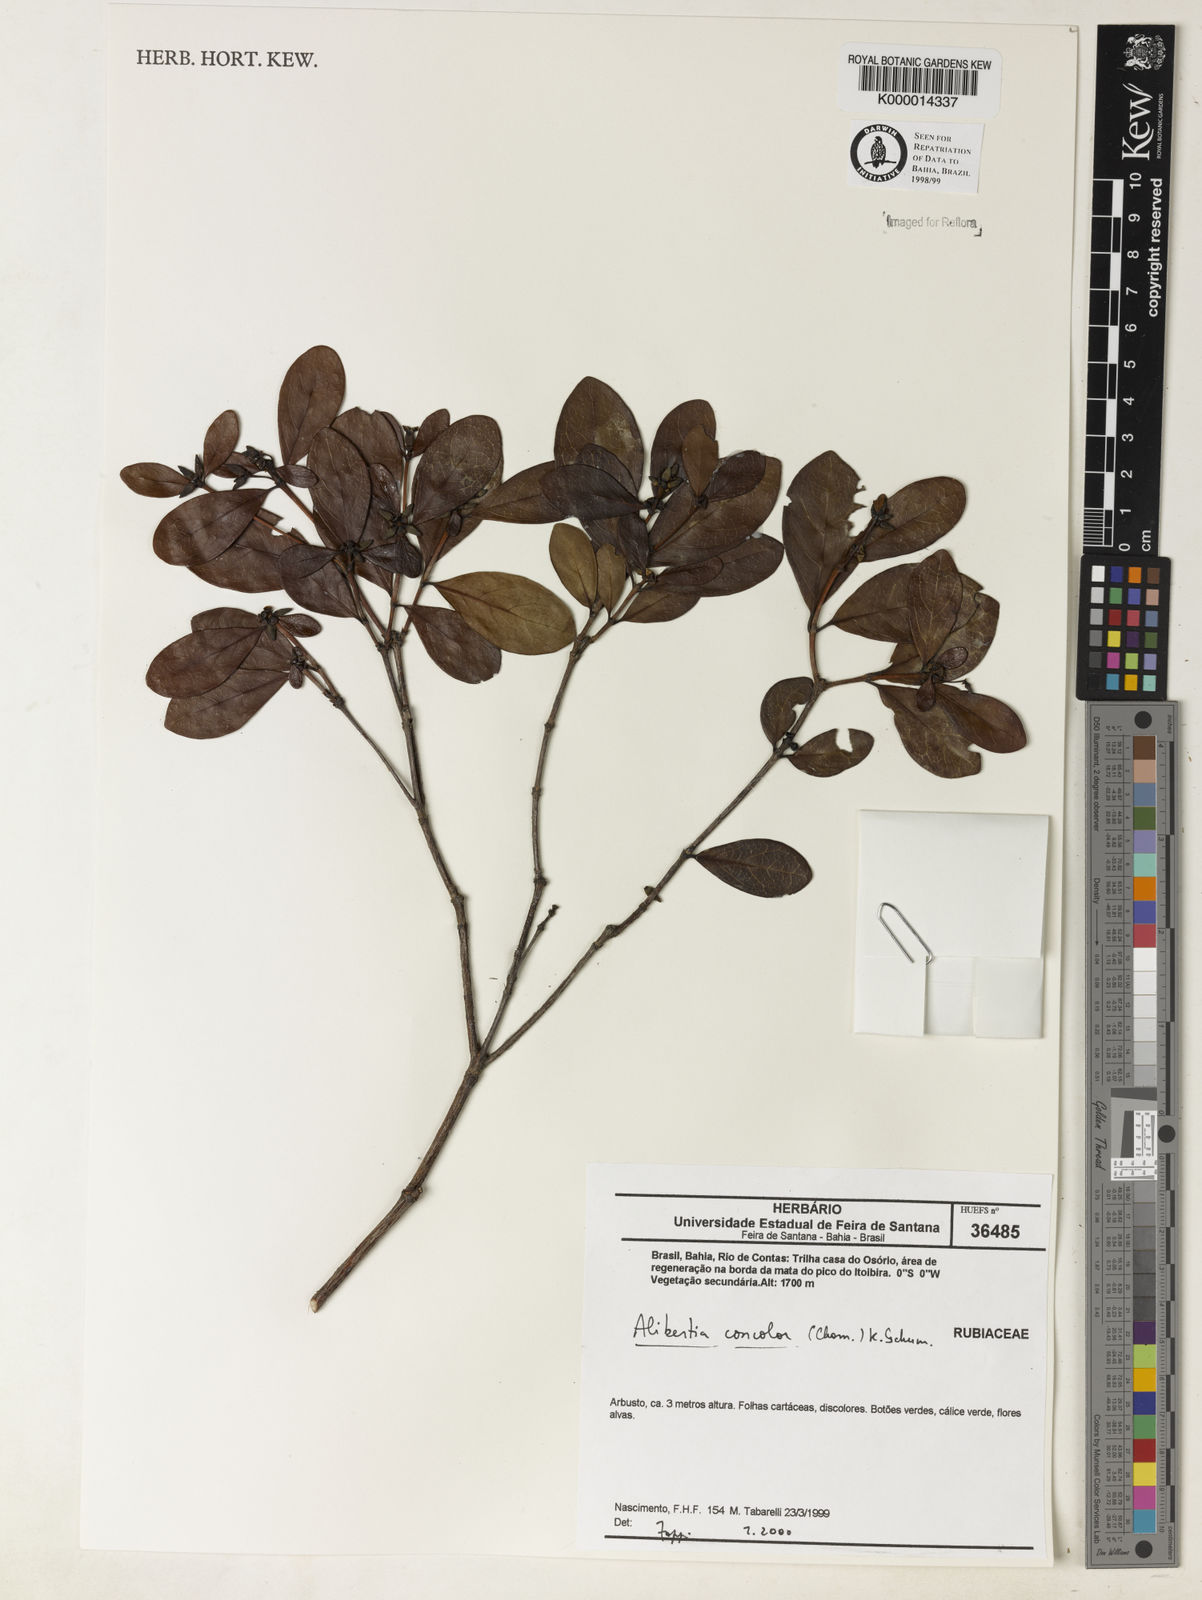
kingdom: Plantae
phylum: Tracheophyta
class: Magnoliopsida
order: Gentianales
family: Rubiaceae
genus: Cordiera
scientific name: Cordiera concolor
